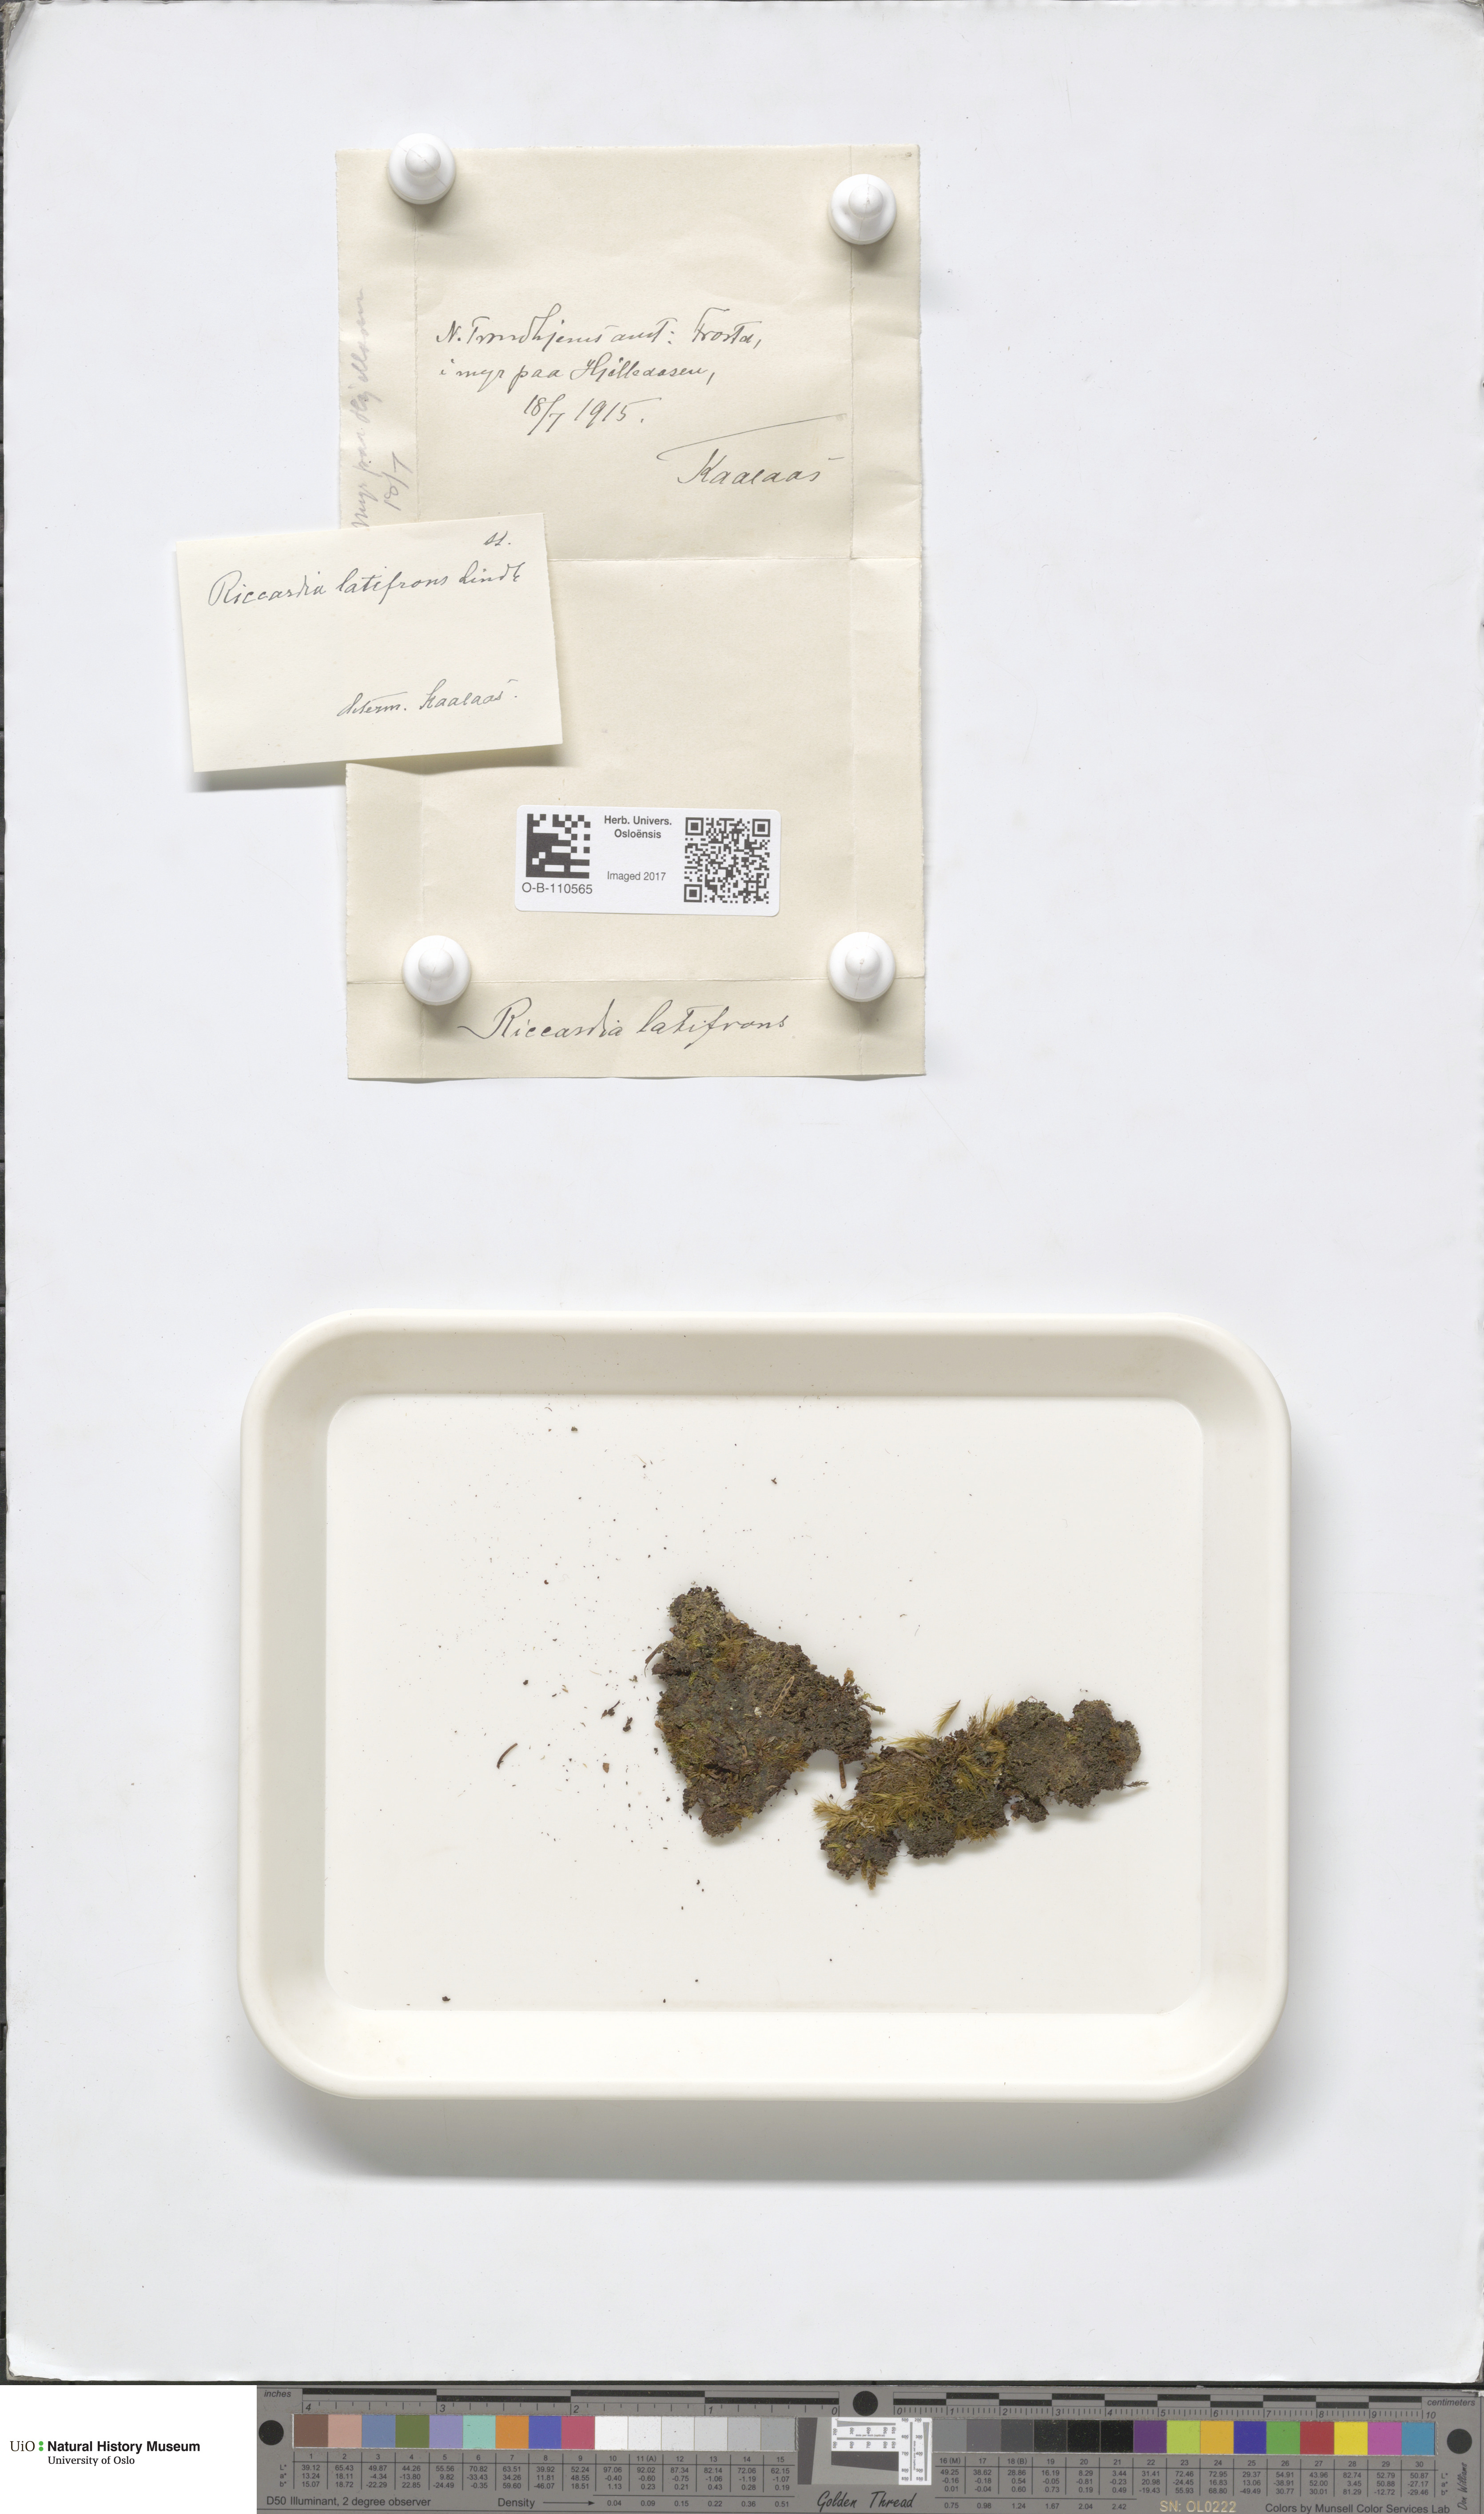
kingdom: Plantae
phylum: Marchantiophyta
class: Jungermanniopsida
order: Metzgeriales
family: Aneuraceae
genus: Riccardia
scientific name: Riccardia latifrons
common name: Bog germanderwort
